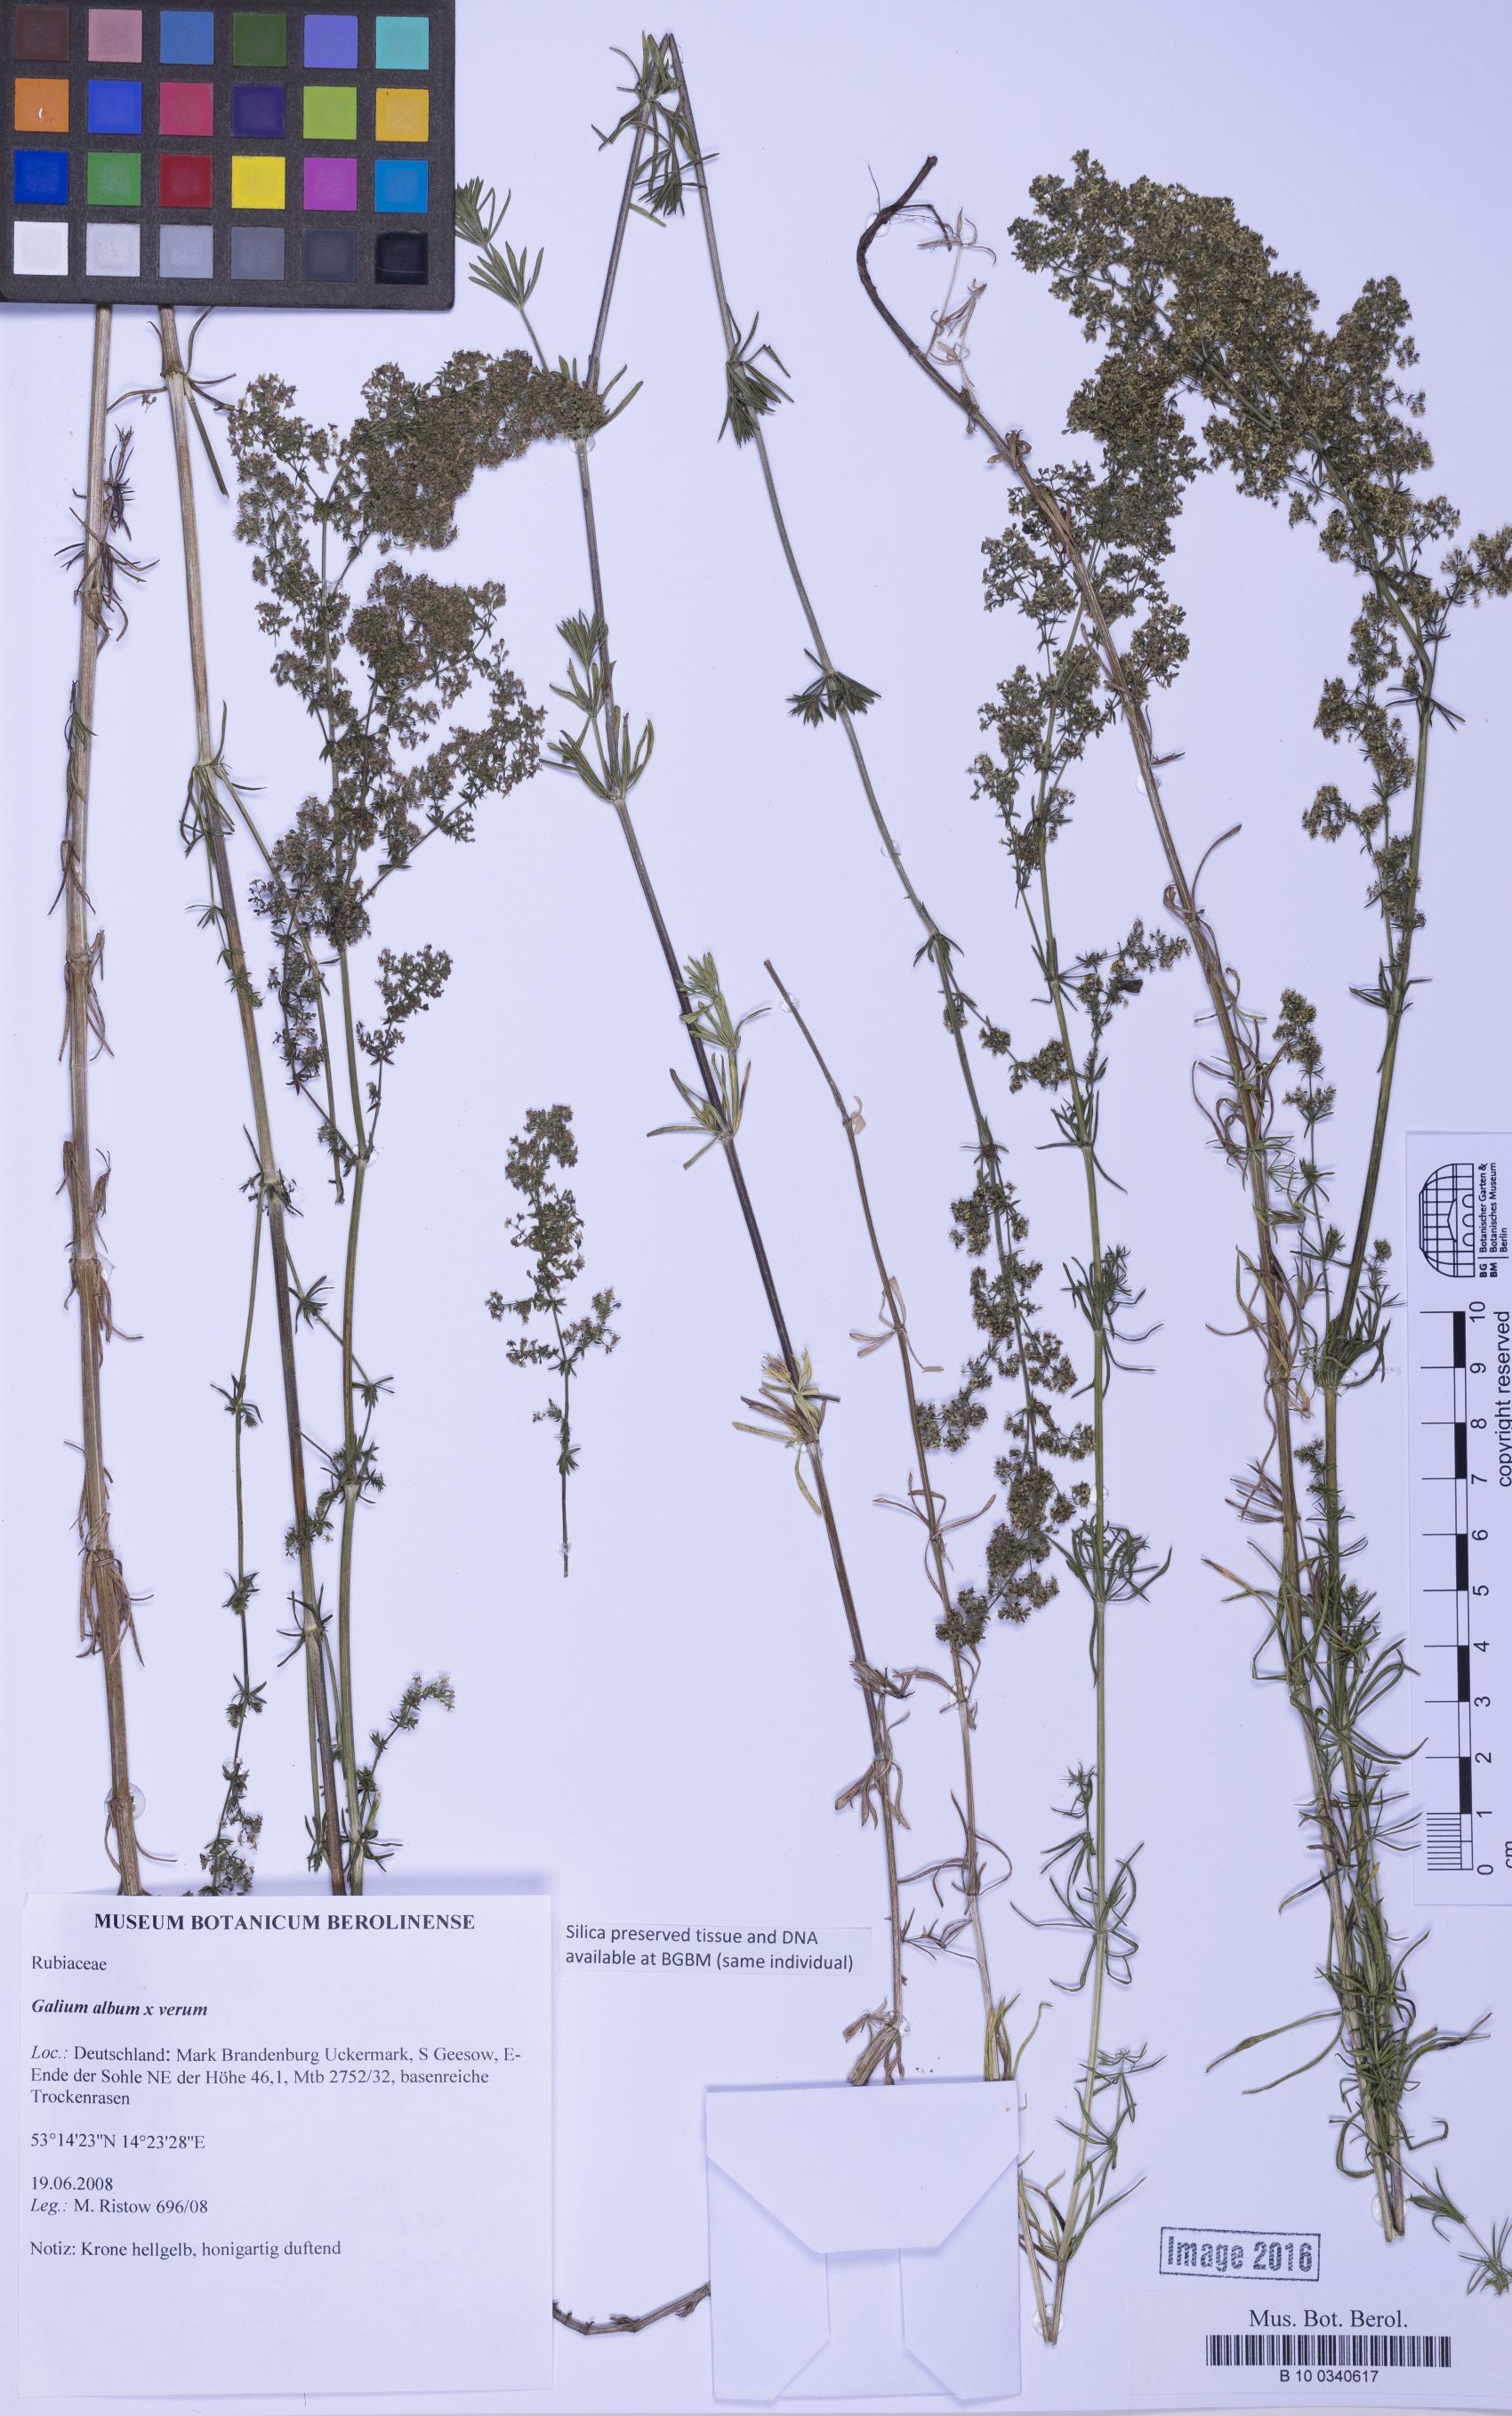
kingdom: Plantae
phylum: Tracheophyta
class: Magnoliopsida
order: Gentianales
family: Rubiaceae
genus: Galium
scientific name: Galium
